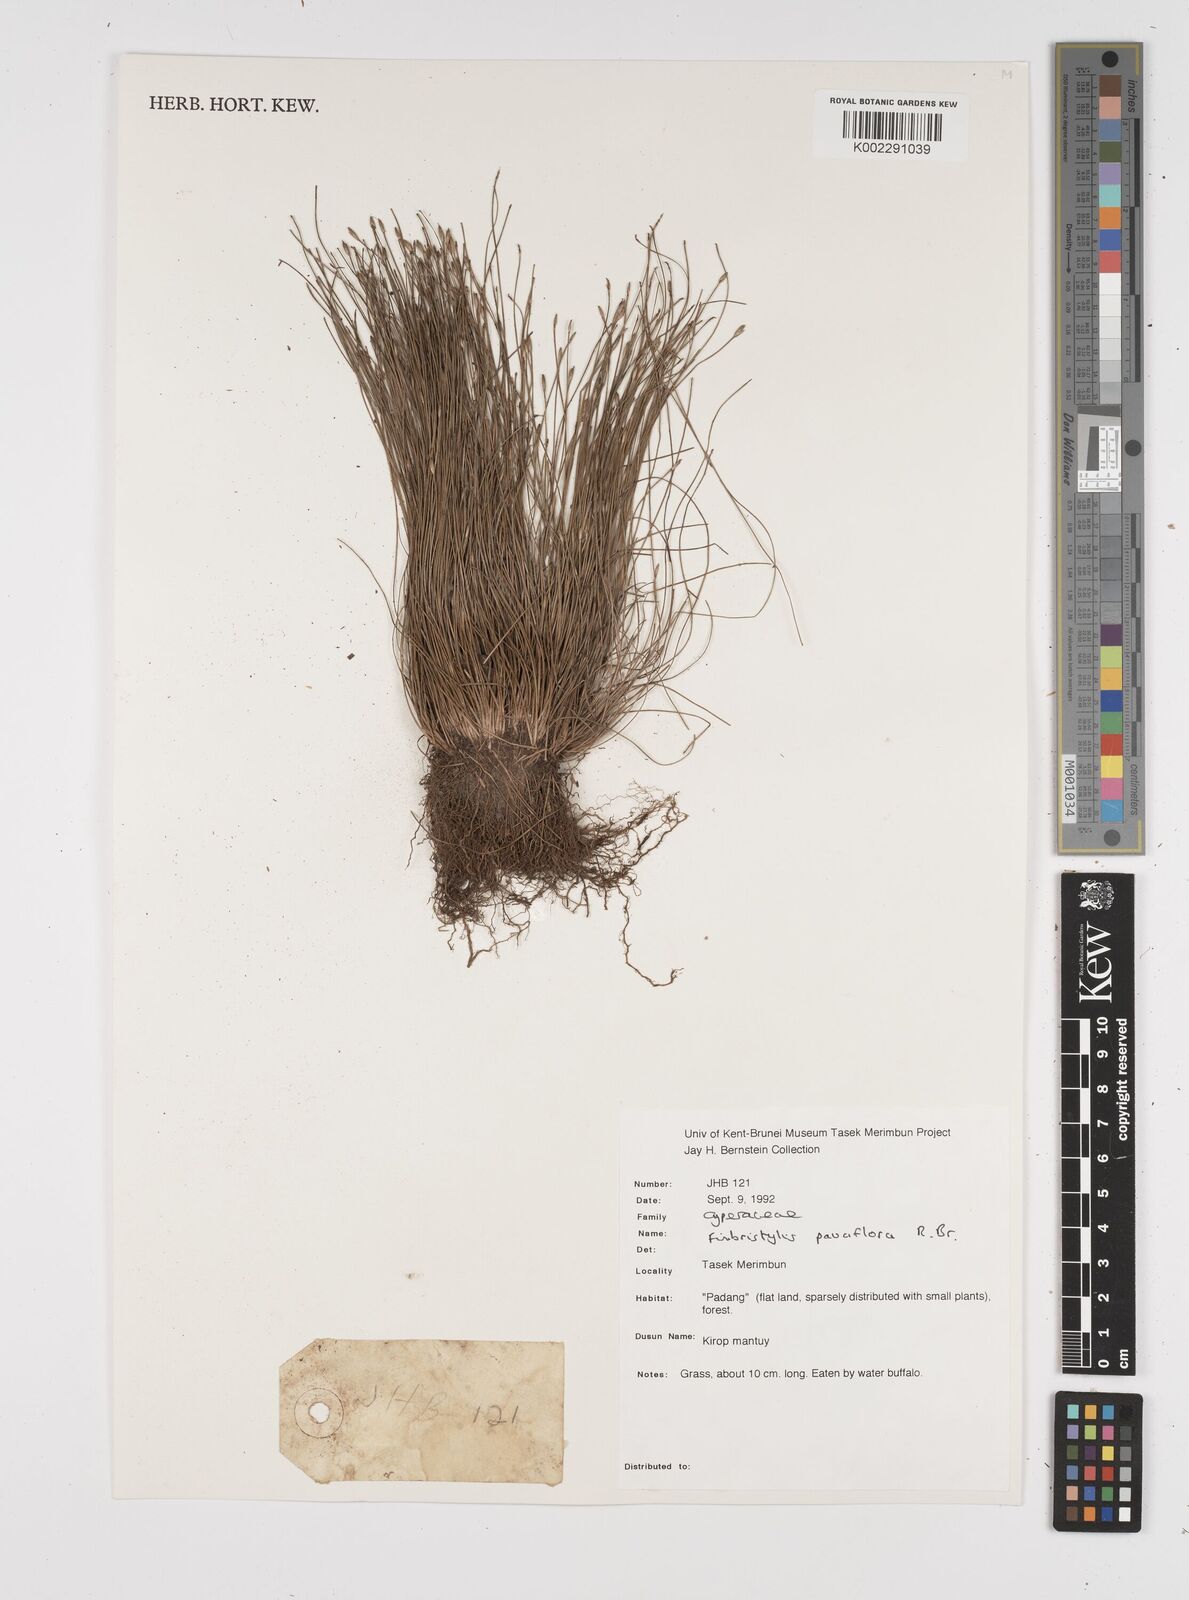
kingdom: Plantae
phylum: Tracheophyta
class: Liliopsida
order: Poales
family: Cyperaceae
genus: Fimbristylis
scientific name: Fimbristylis pauciflora
